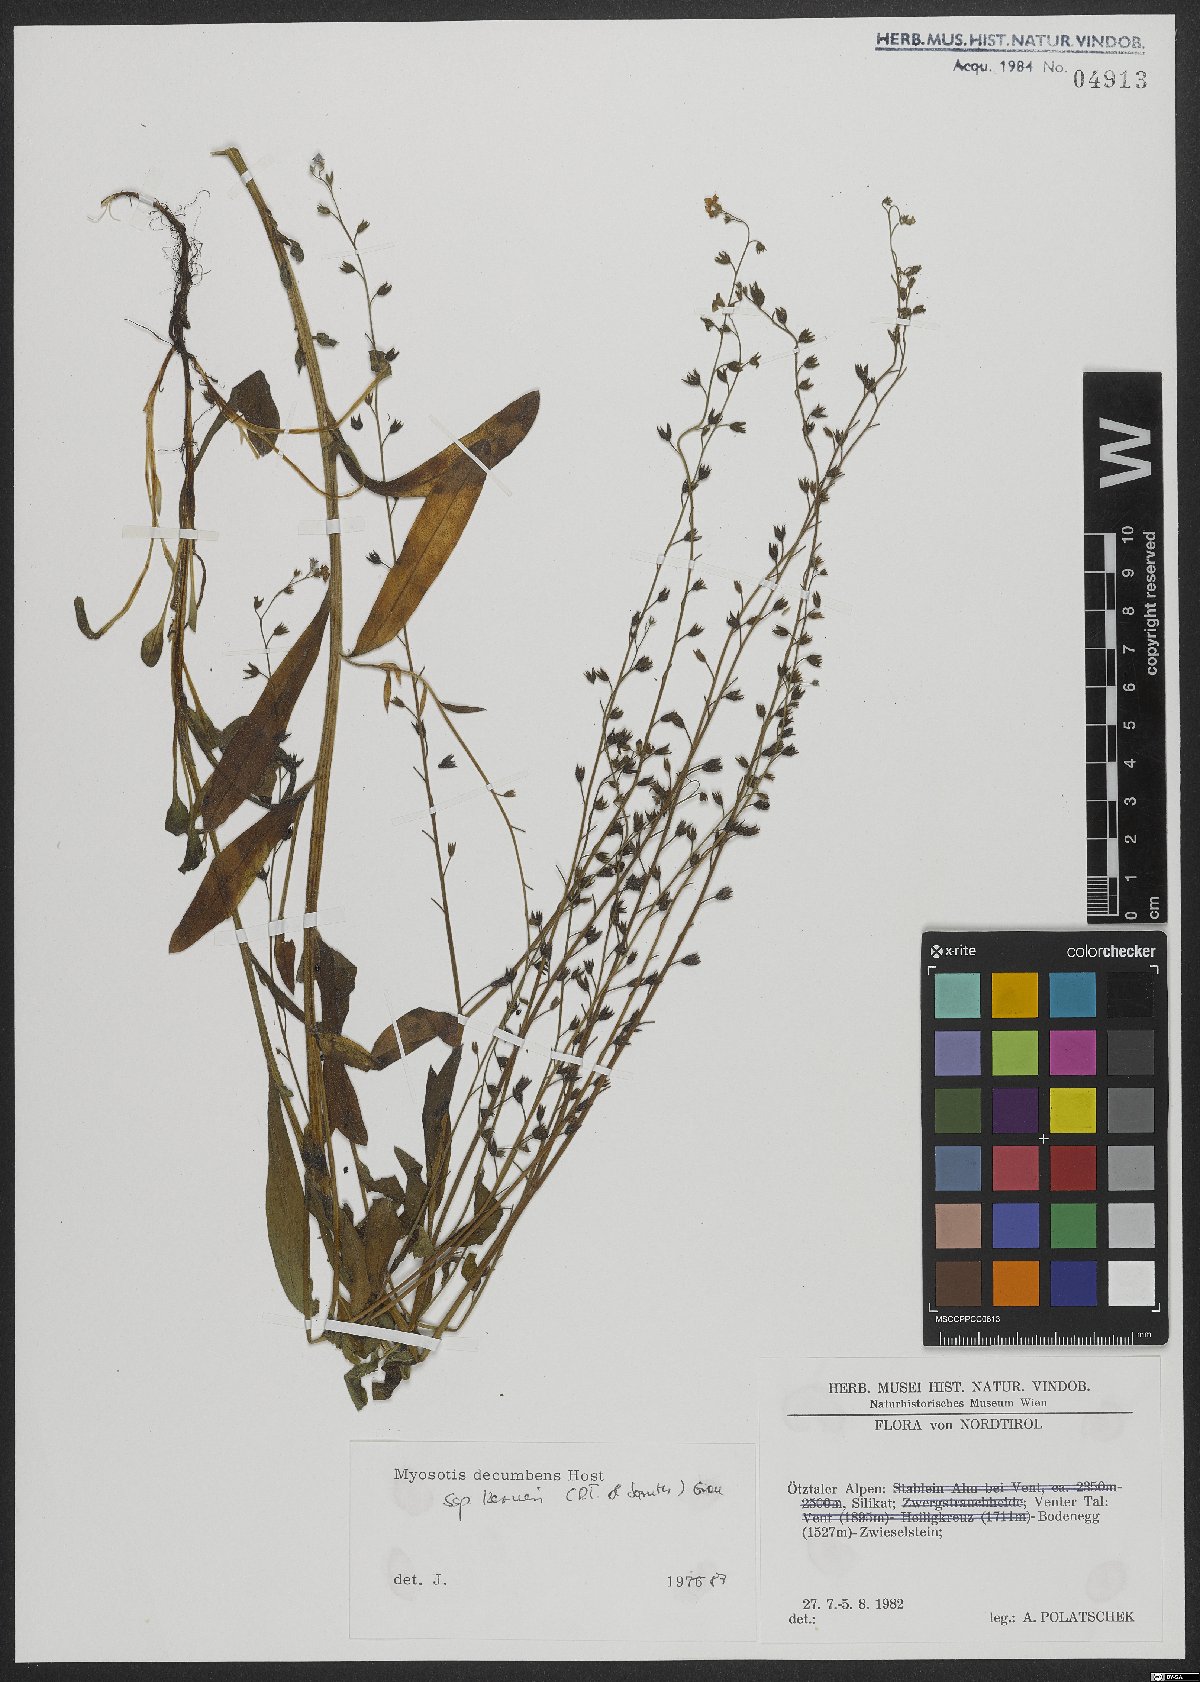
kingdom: Plantae
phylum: Tracheophyta
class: Magnoliopsida
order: Boraginales
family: Boraginaceae
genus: Myosotis
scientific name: Myosotis decumbens
